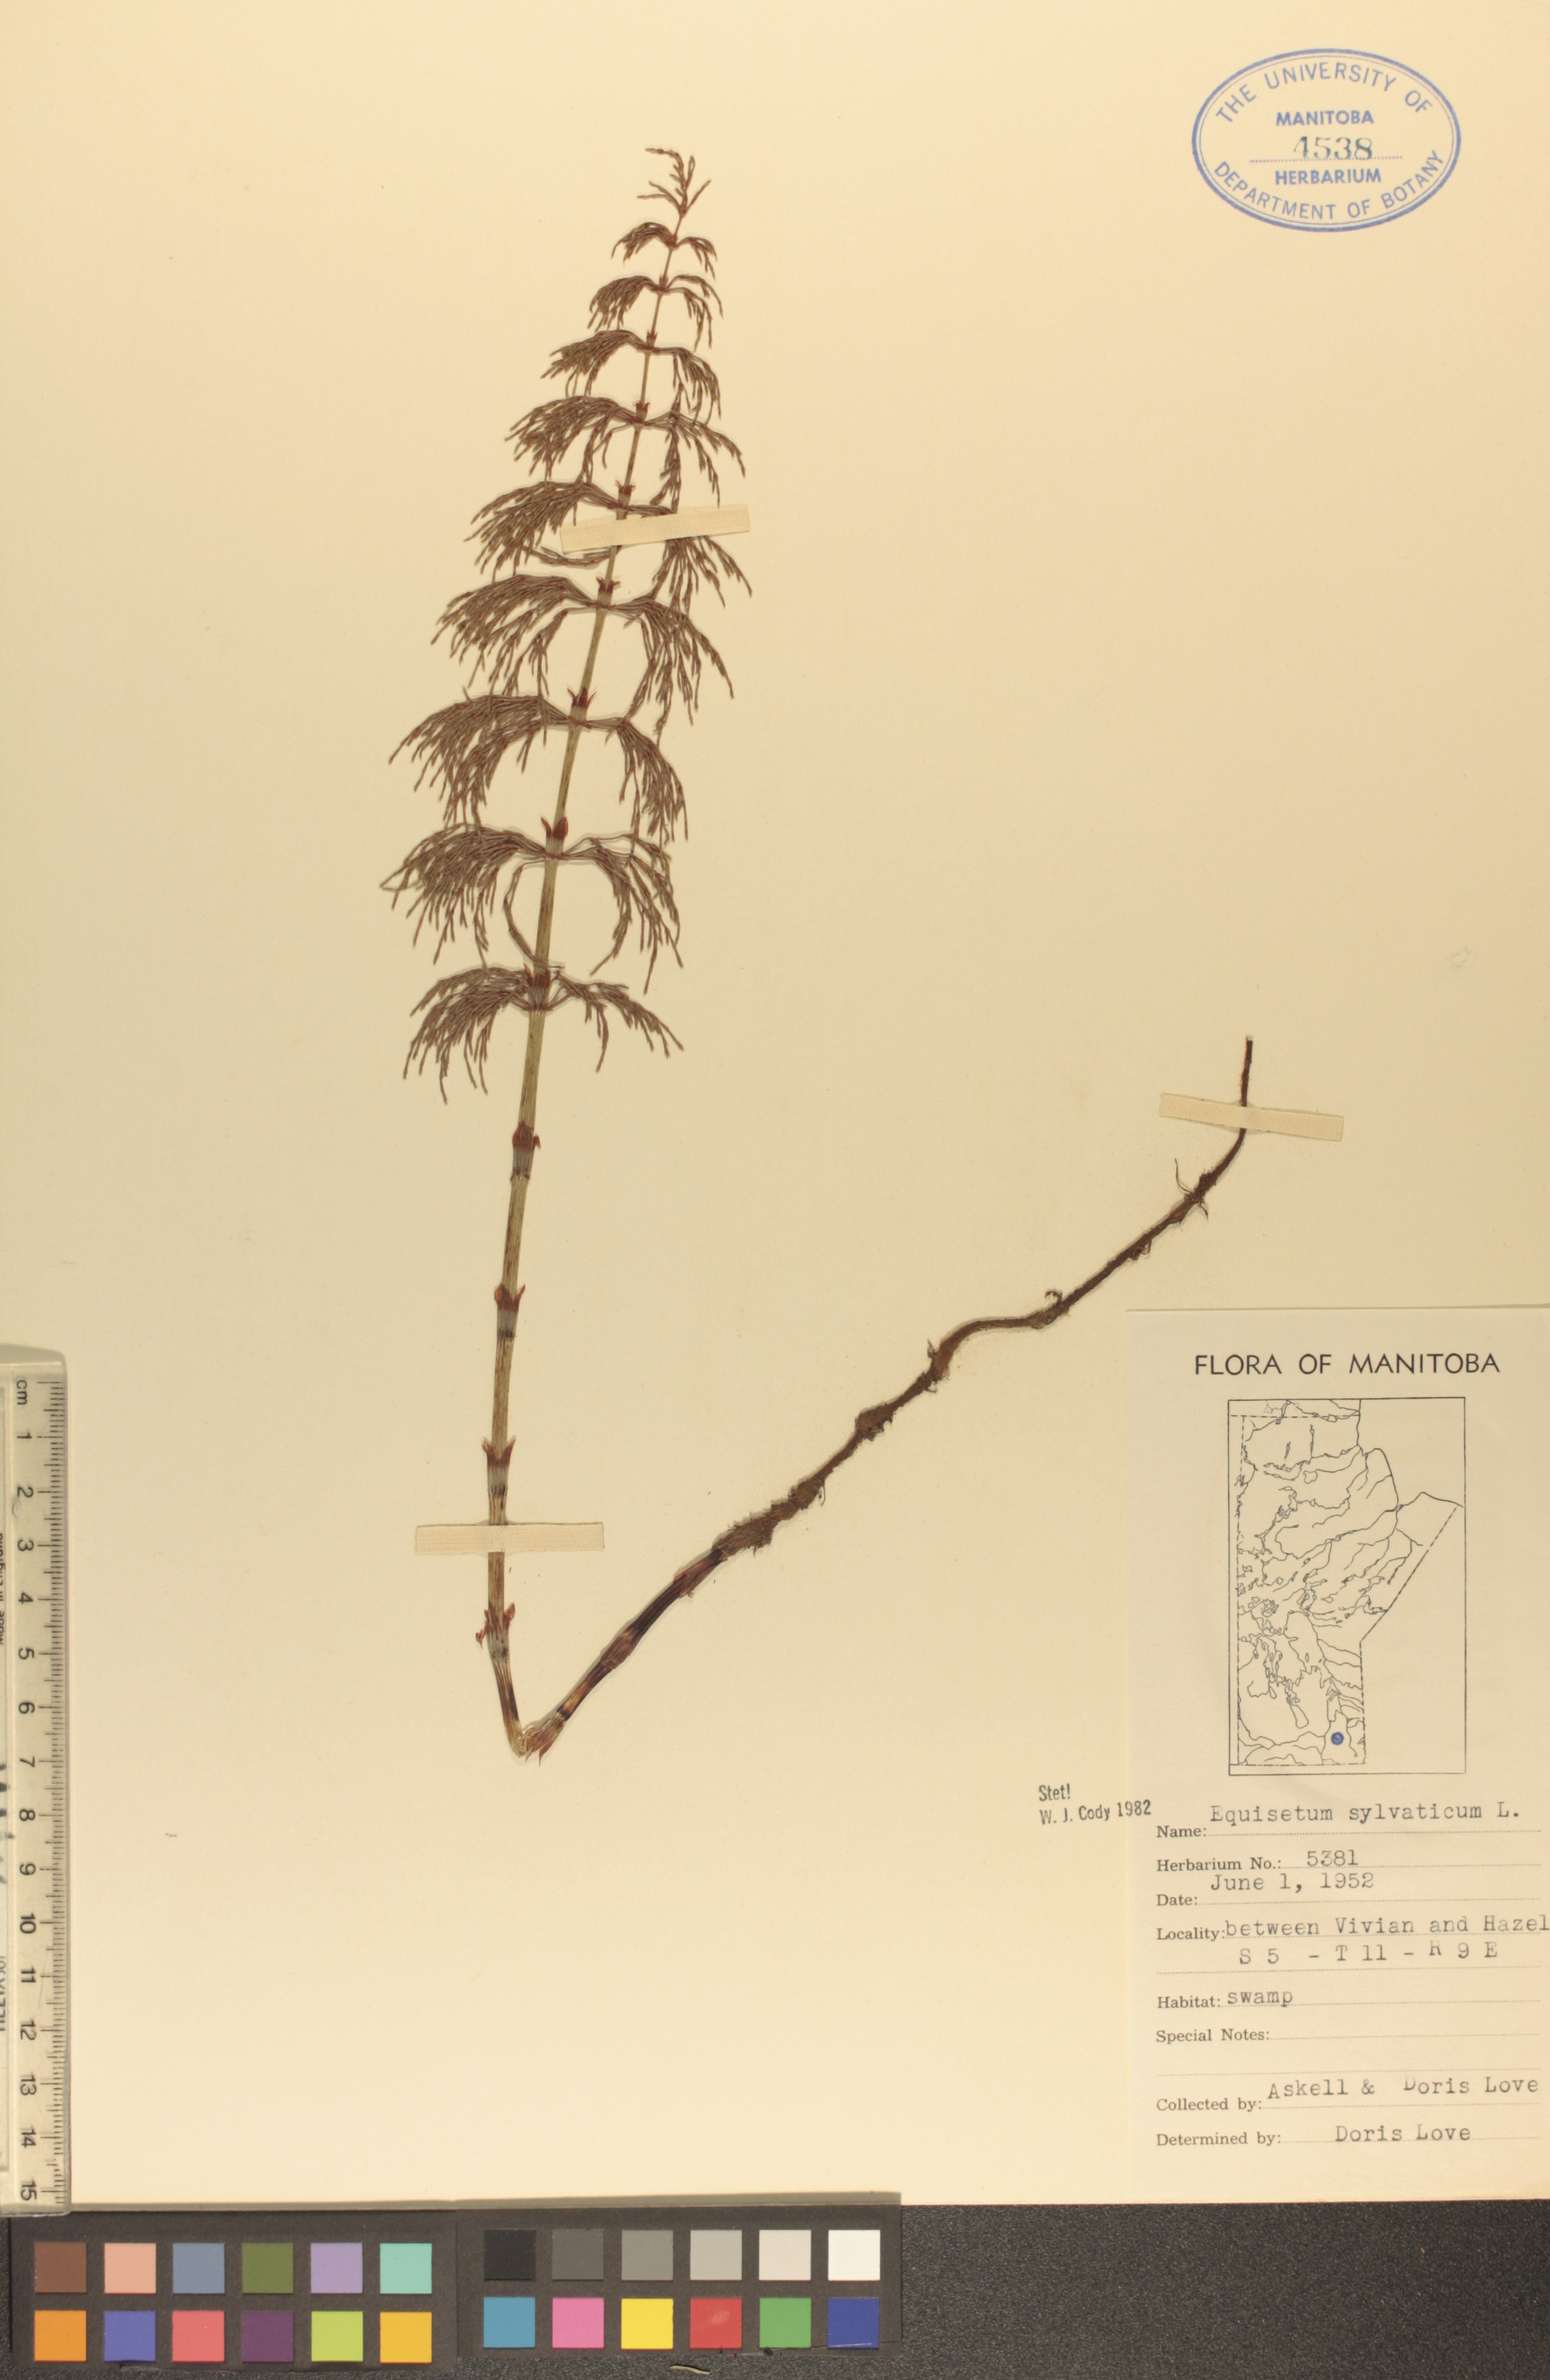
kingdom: Plantae
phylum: Tracheophyta
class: Polypodiopsida
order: Equisetales
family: Equisetaceae
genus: Equisetum
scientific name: Equisetum sylvaticum
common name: Wood horsetail
